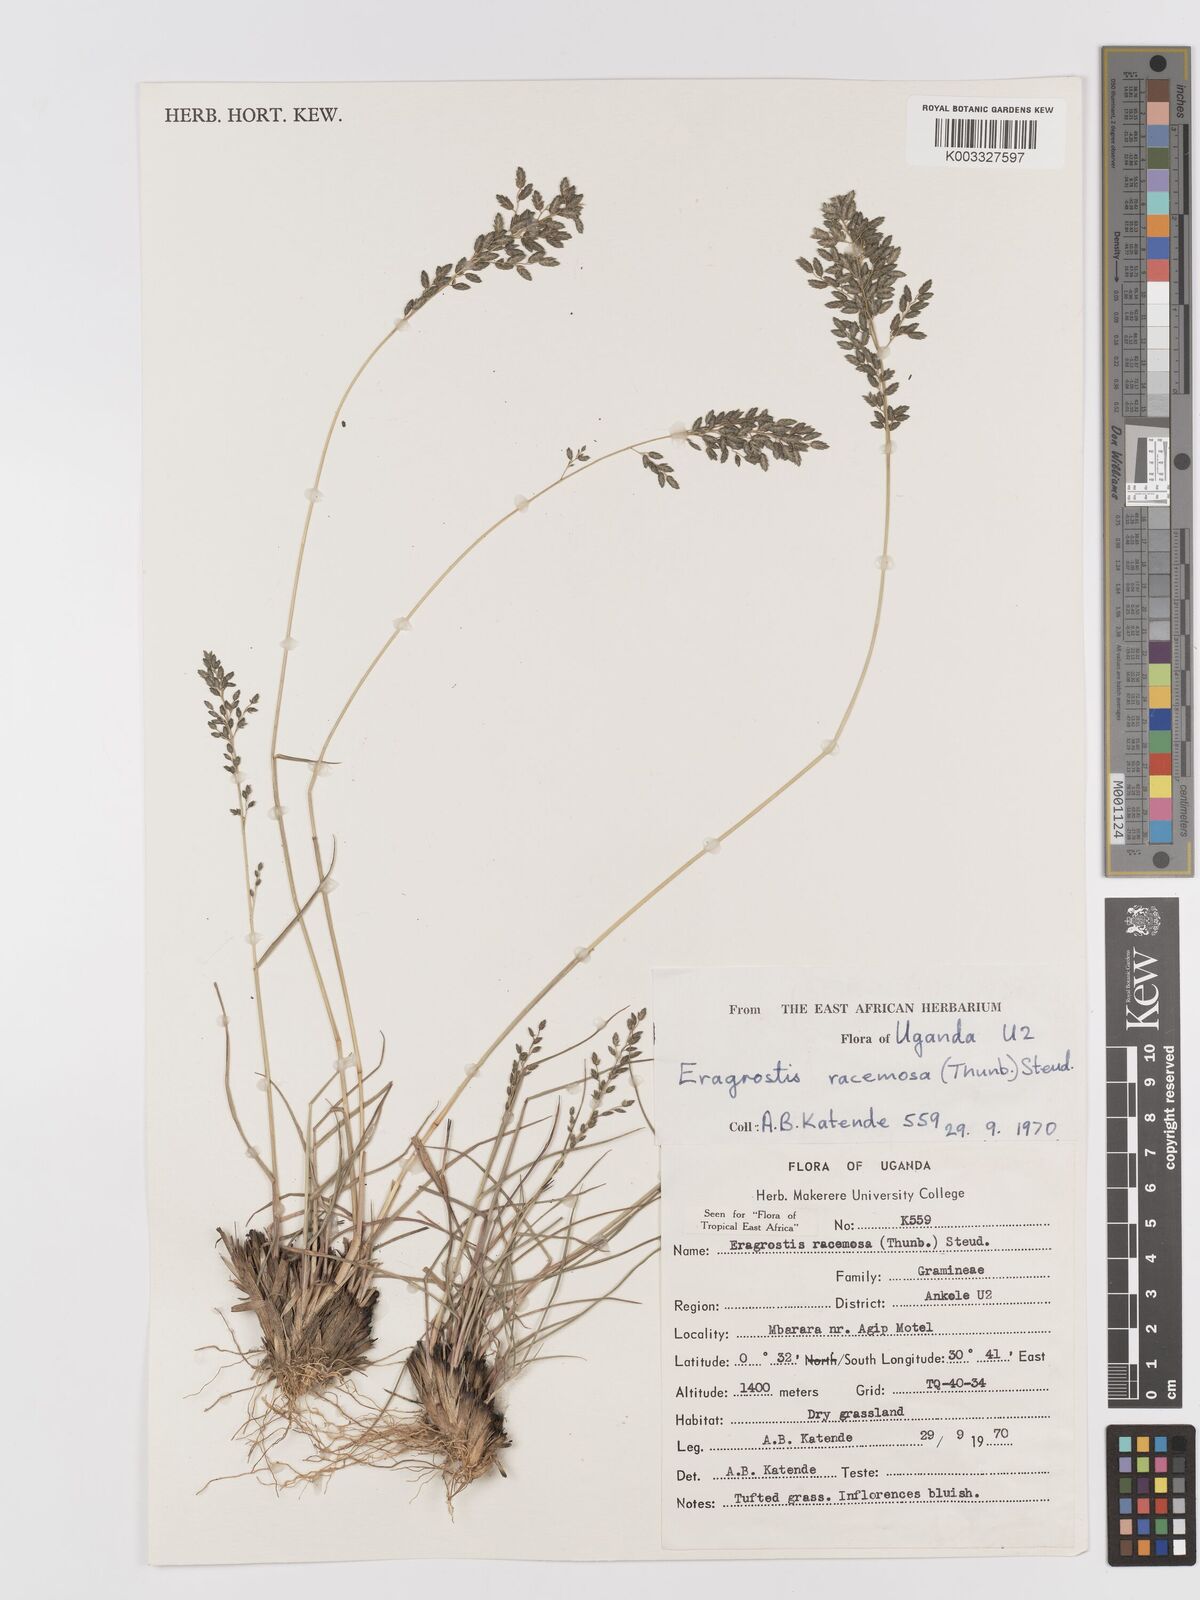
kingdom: Plantae
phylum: Tracheophyta
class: Liliopsida
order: Poales
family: Poaceae
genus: Eragrostis
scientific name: Eragrostis racemosa
